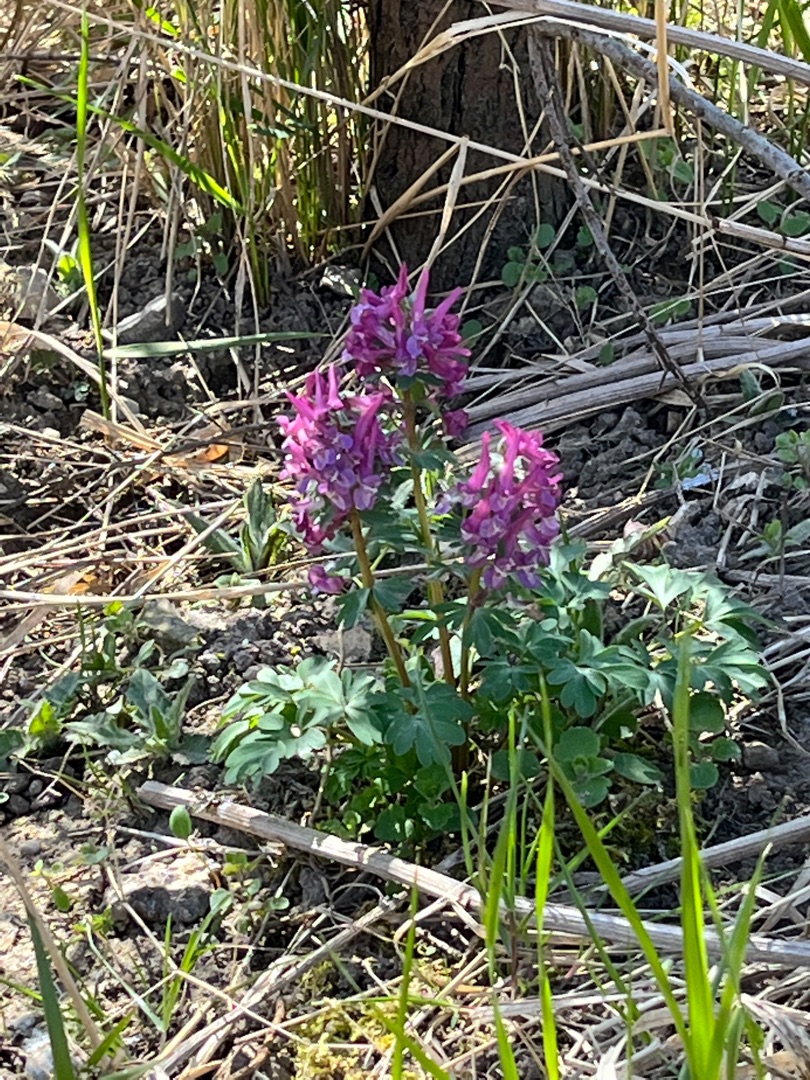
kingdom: Plantae
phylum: Tracheophyta
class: Magnoliopsida
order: Ranunculales
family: Papaveraceae
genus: Corydalis
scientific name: Corydalis solida
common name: Langstilket lærkespore
